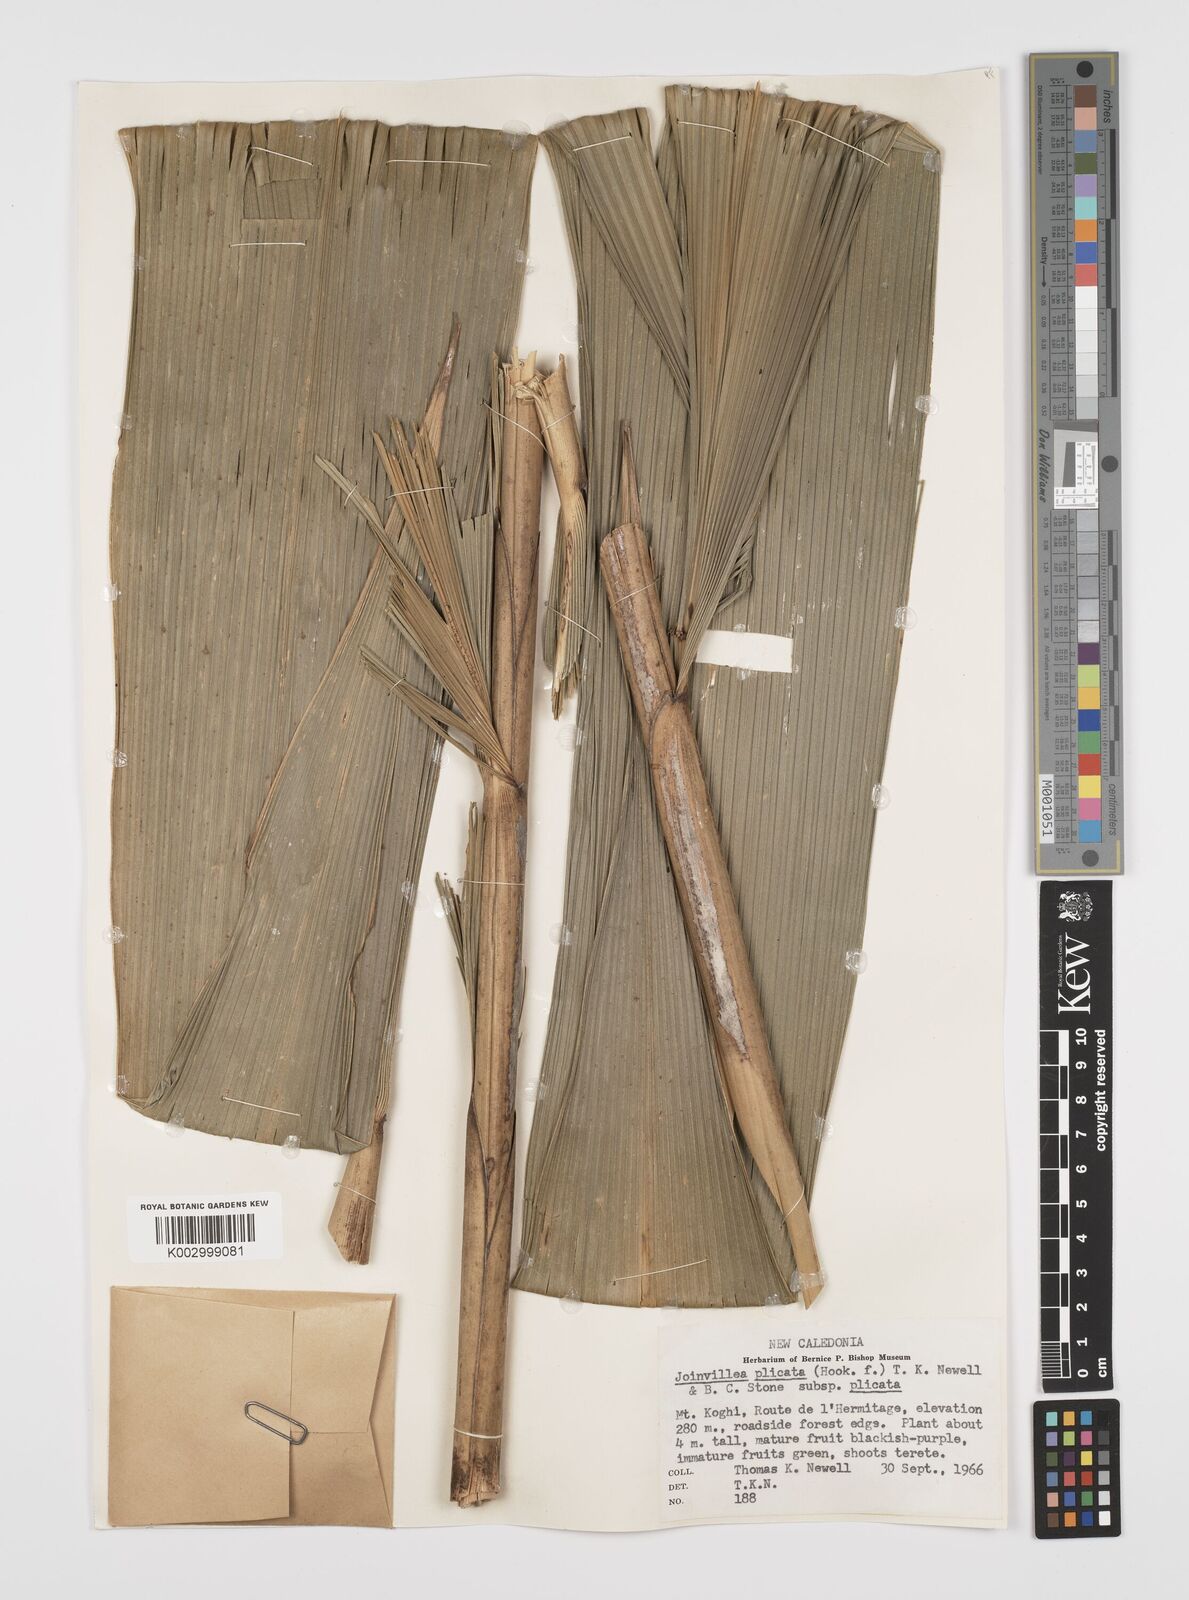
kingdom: Plantae
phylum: Tracheophyta
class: Liliopsida
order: Poales
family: Joinvilleaceae
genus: Joinvillea
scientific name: Joinvillea plicata
